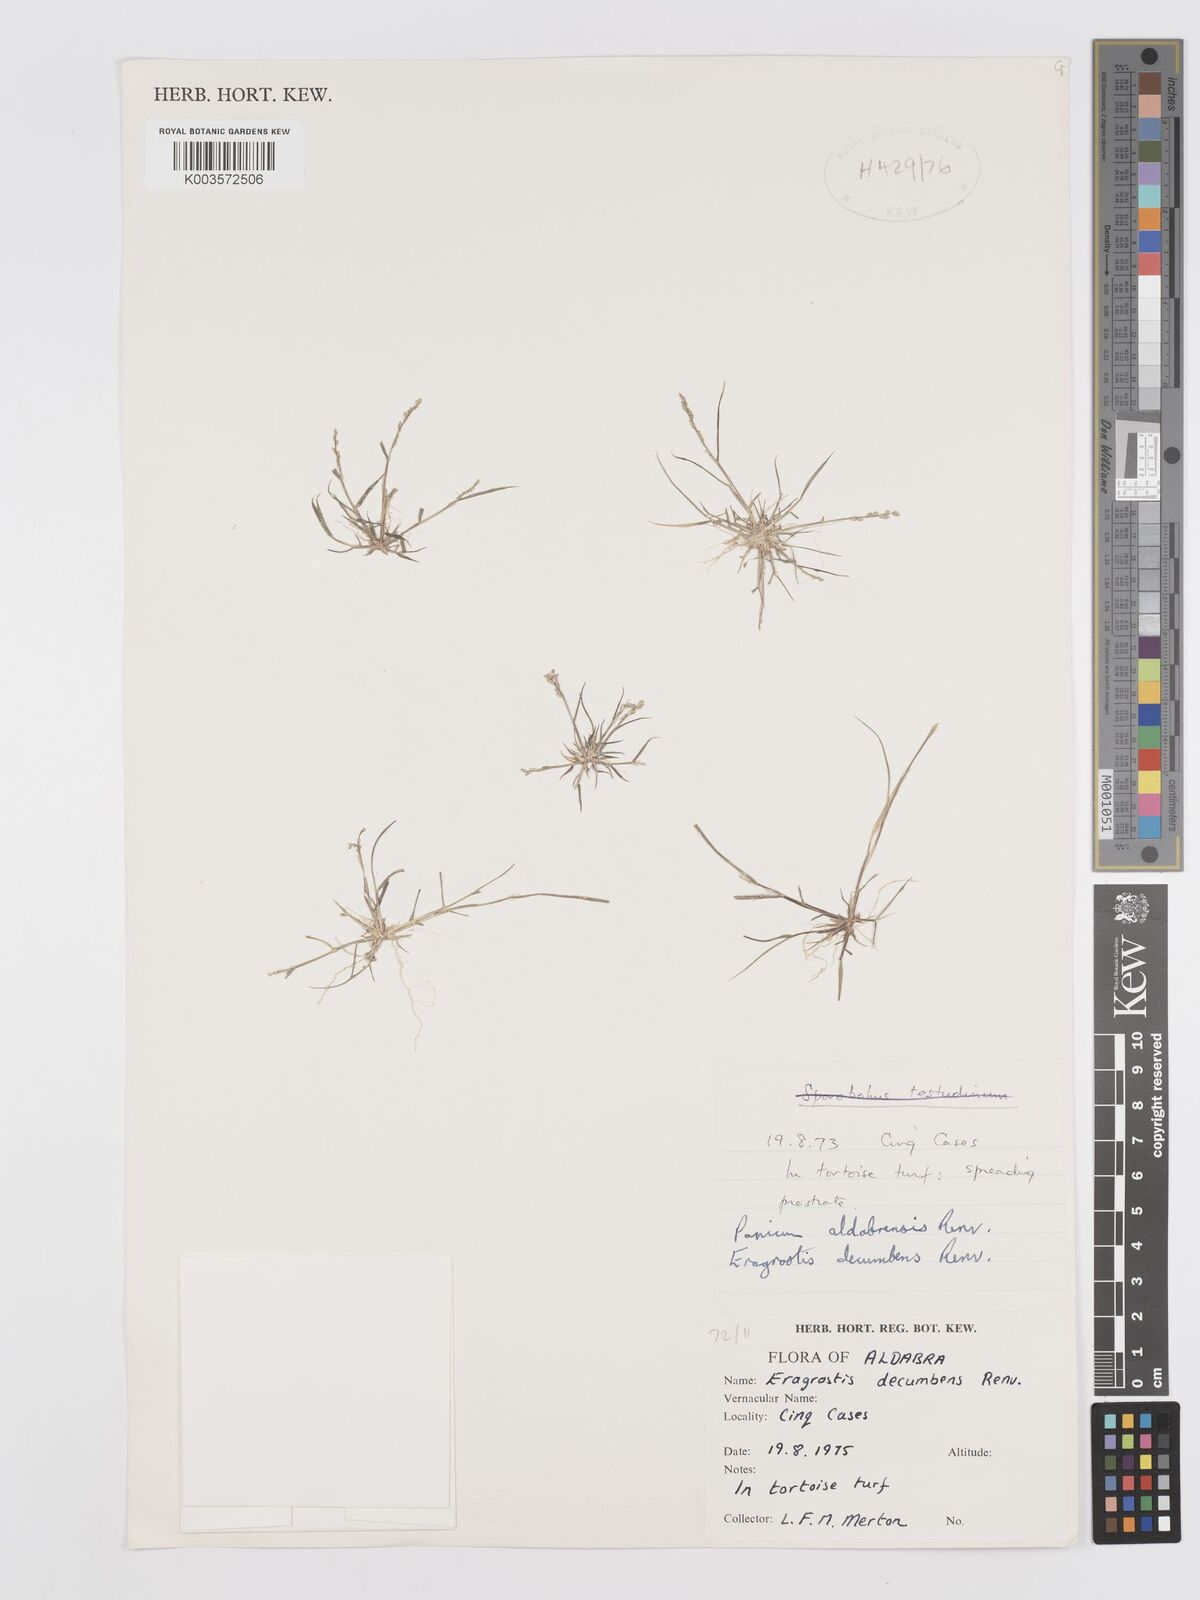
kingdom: Plantae
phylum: Tracheophyta
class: Liliopsida
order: Poales
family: Poaceae
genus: Eragrostis
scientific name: Eragrostis decumbens
